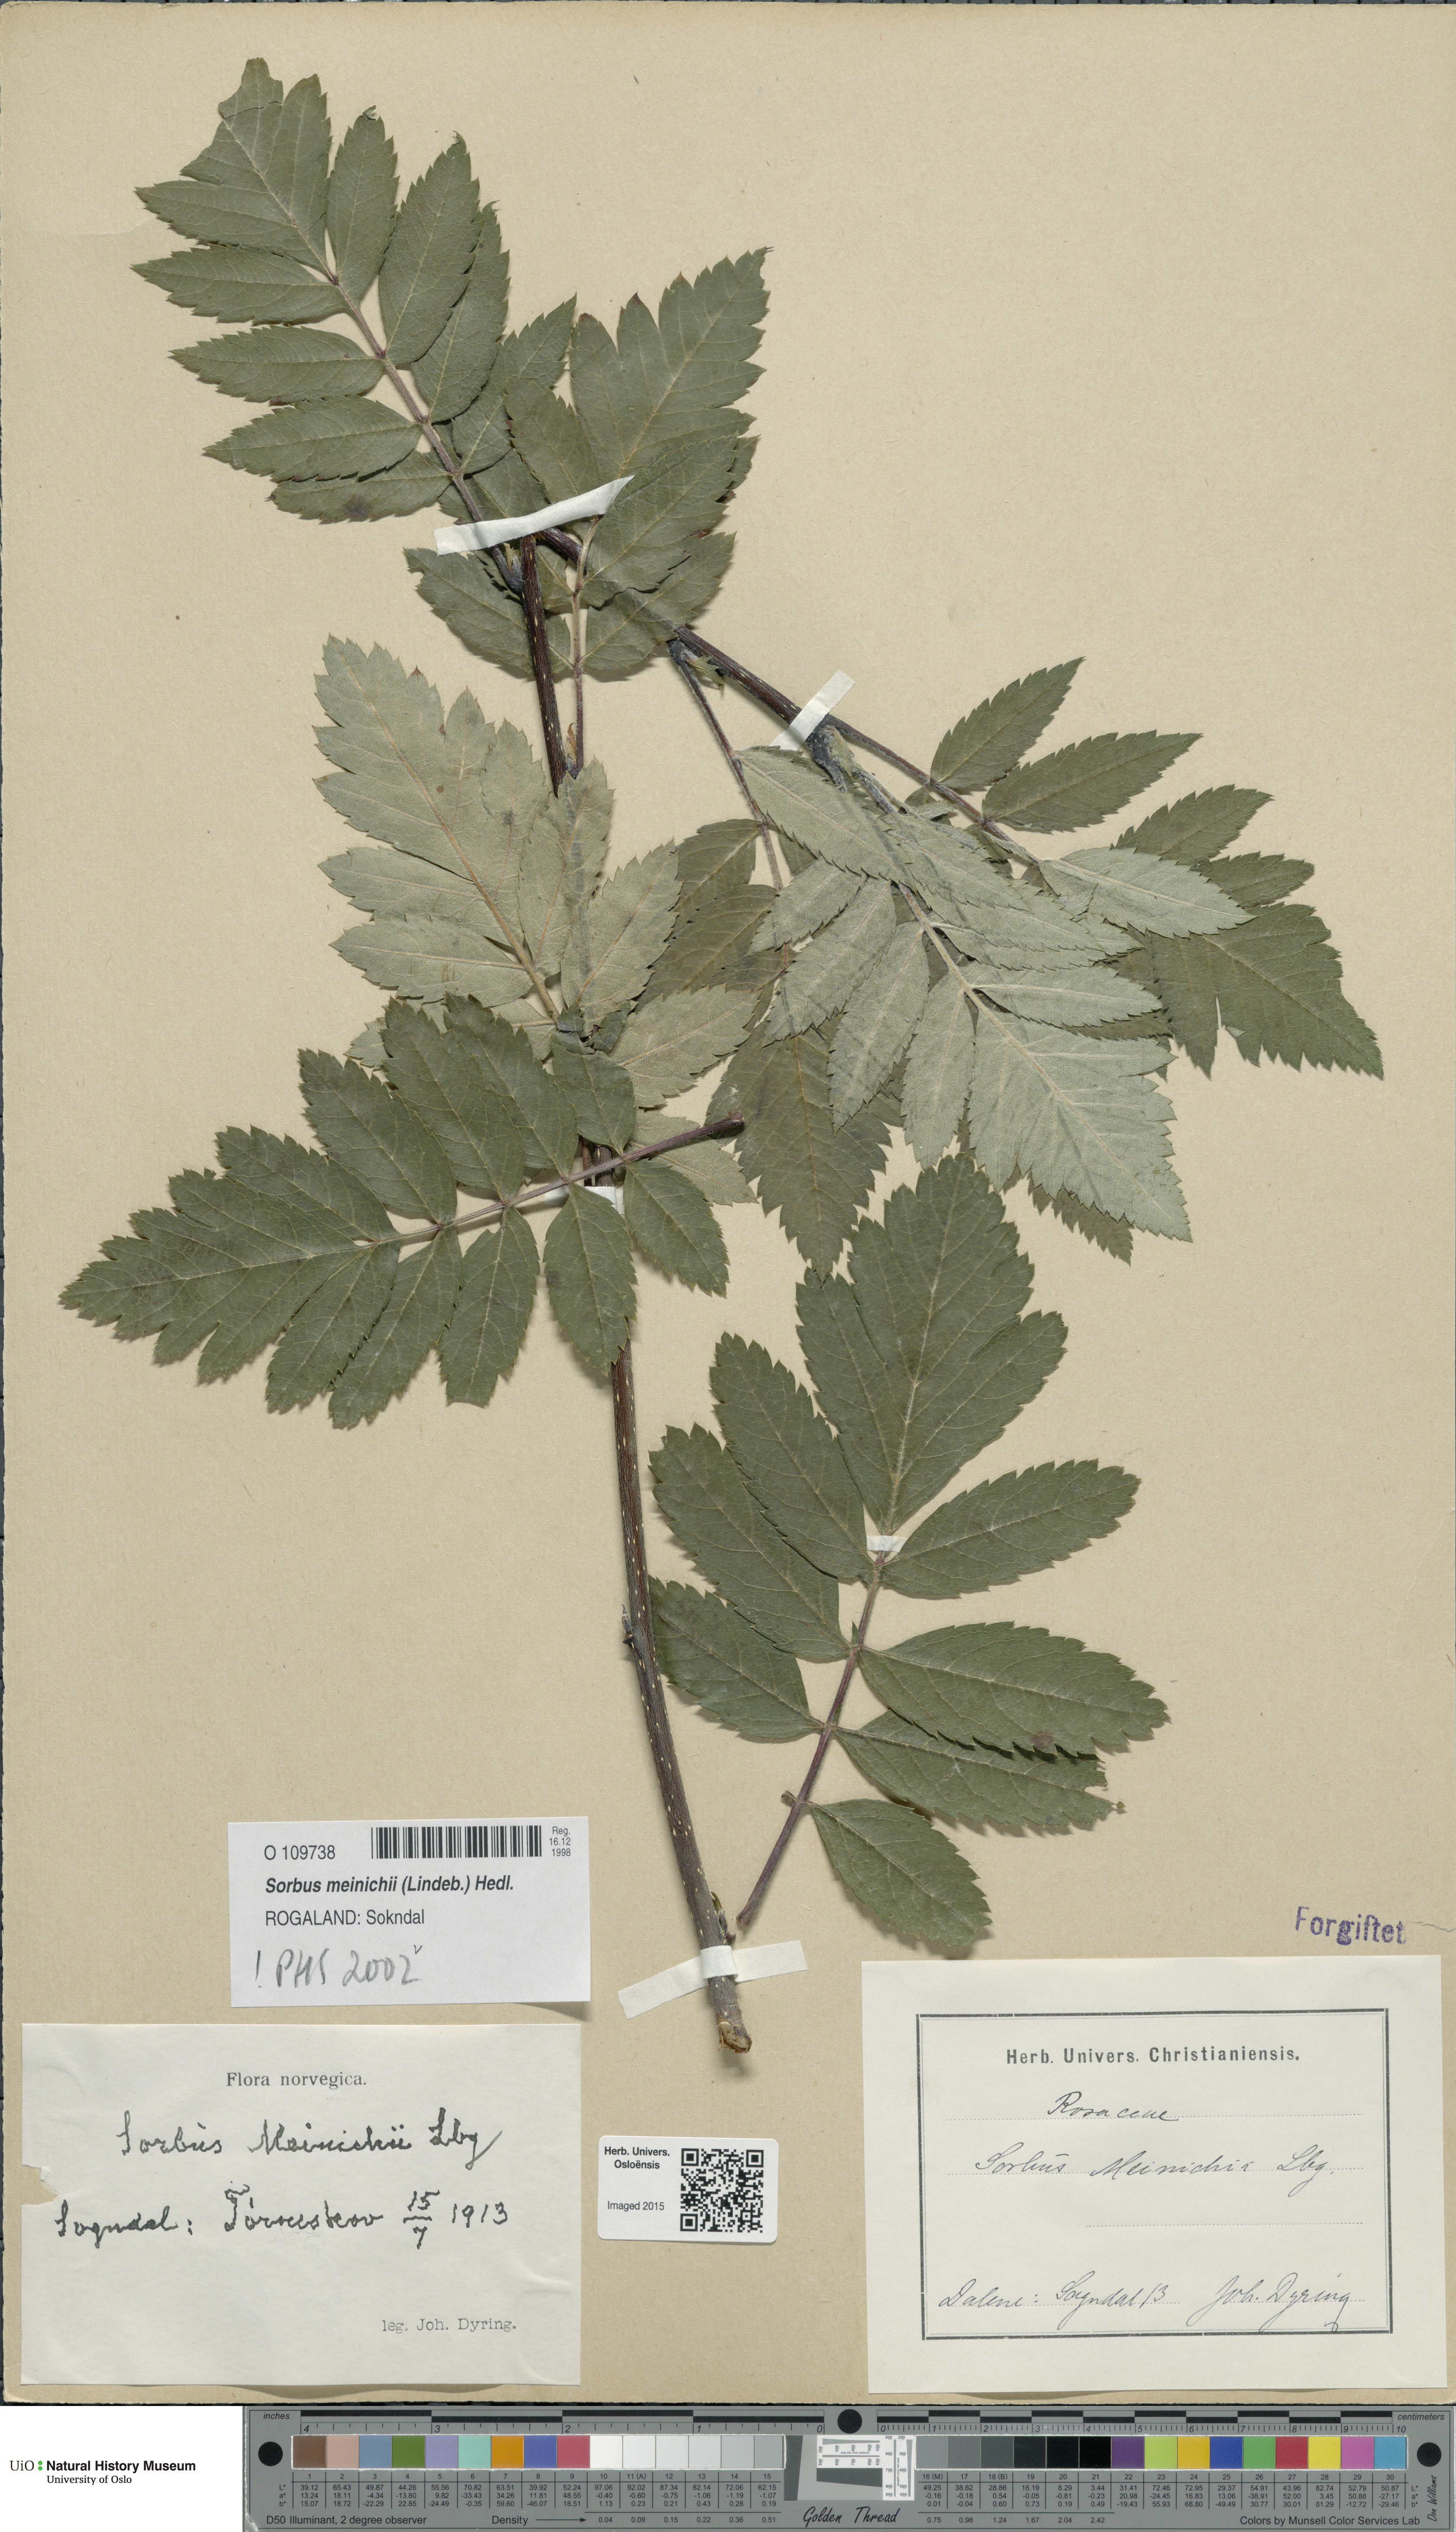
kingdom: Plantae
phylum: Tracheophyta
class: Magnoliopsida
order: Rosales
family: Rosaceae
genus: Hedlundia
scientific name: Hedlundia meinichii
